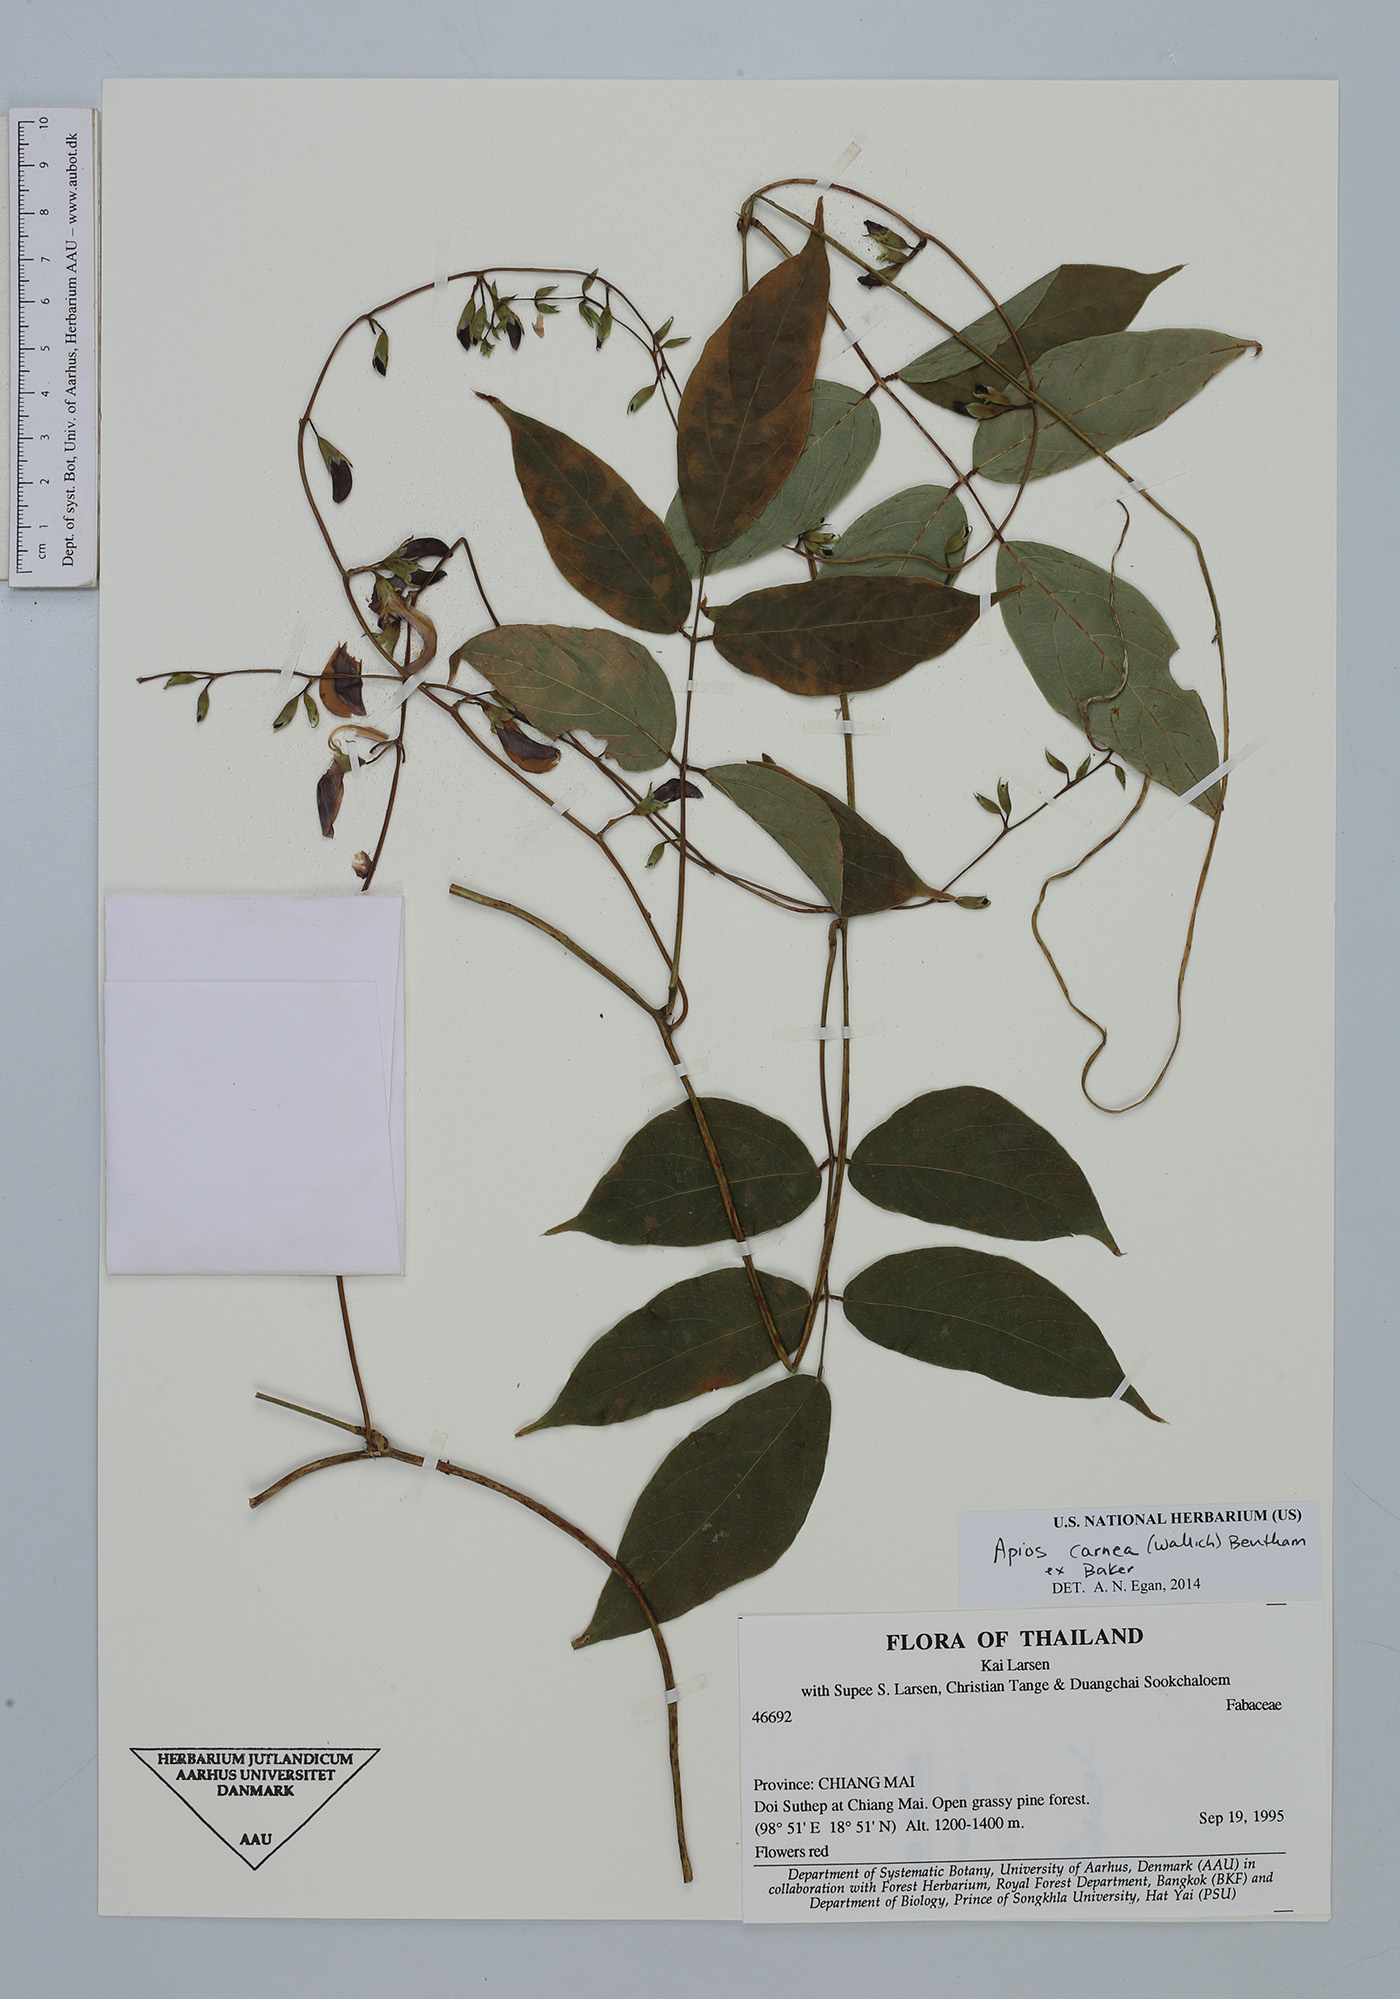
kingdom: Plantae
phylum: Tracheophyta
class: Magnoliopsida
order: Fabales
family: Fabaceae
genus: Apios
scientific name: Apios carnea
